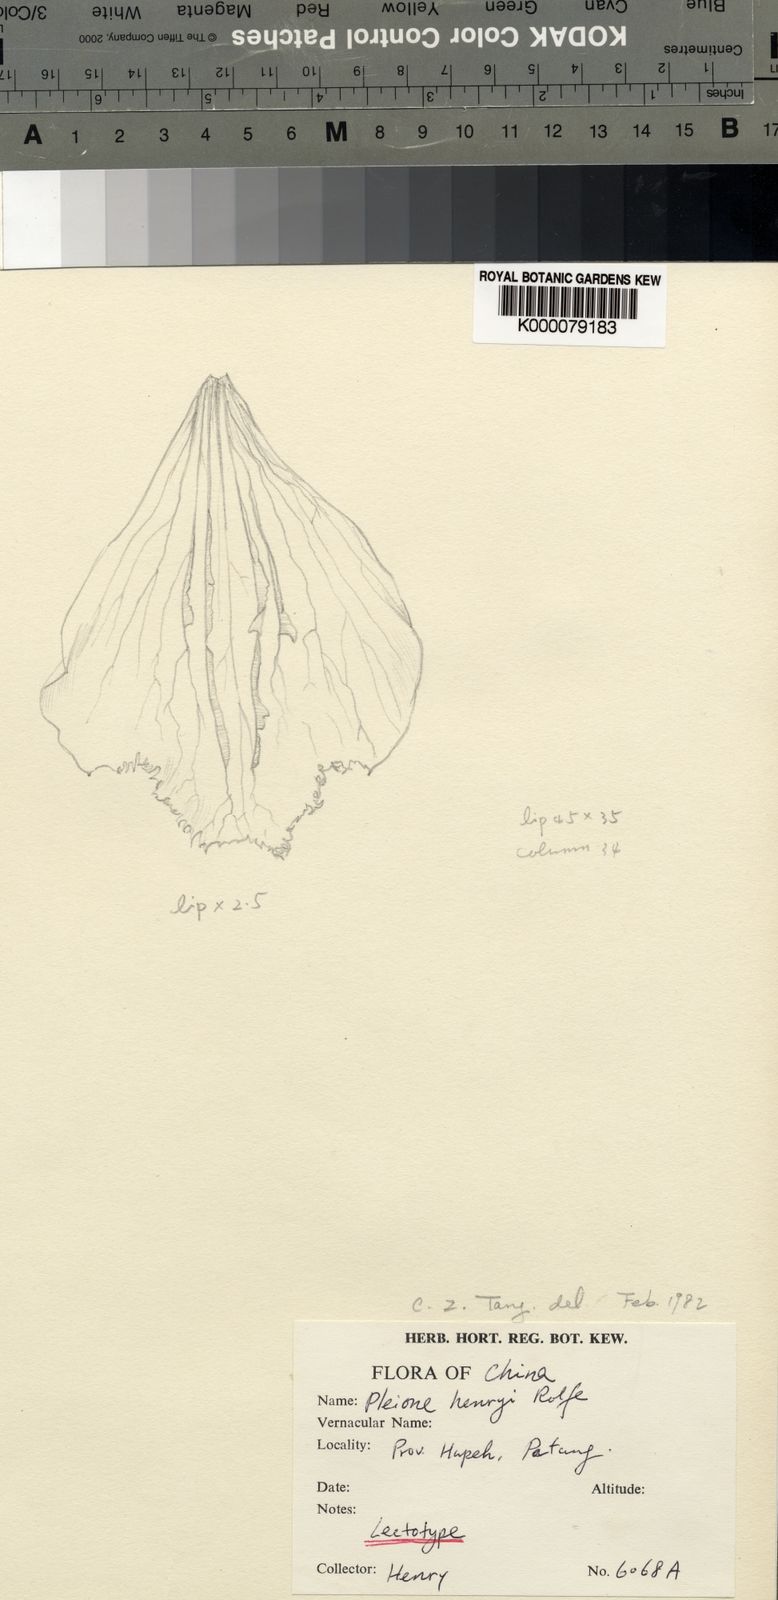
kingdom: Plantae
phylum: Tracheophyta
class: Liliopsida
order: Asparagales
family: Orchidaceae
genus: Pleione
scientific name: Pleione bulbocodioides
